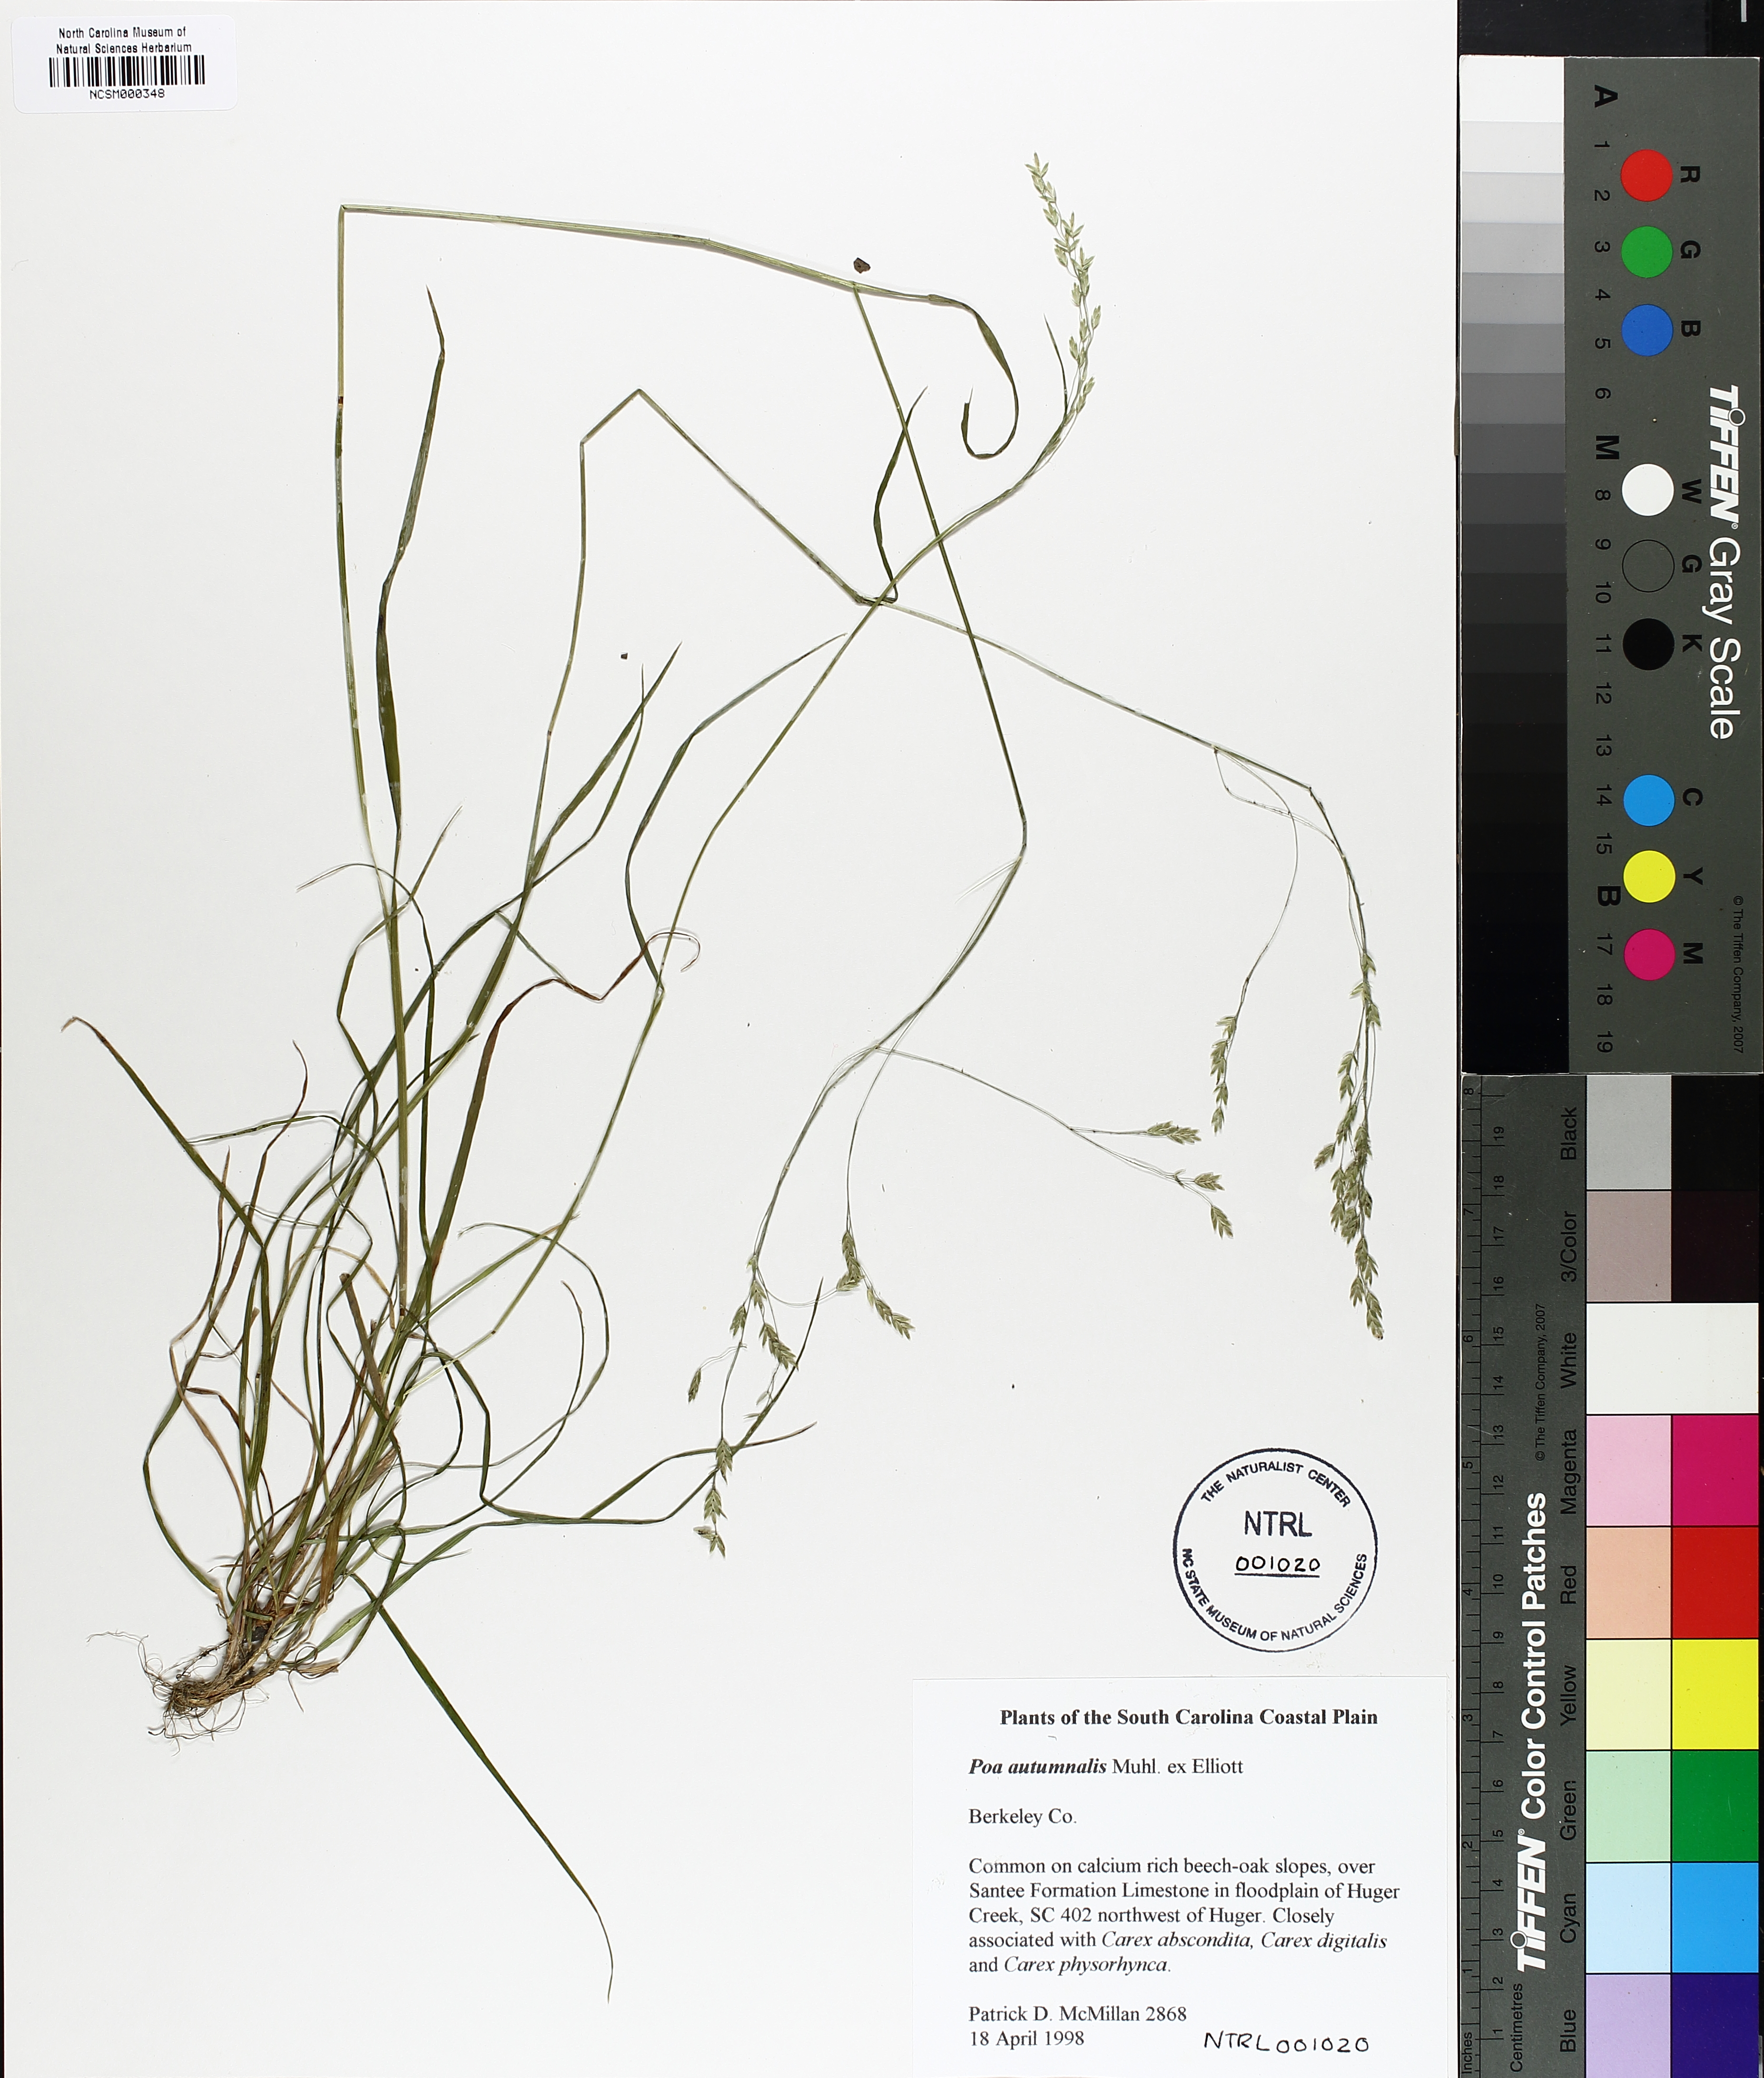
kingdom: Plantae
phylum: Tracheophyta
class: Liliopsida
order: Poales
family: Poaceae
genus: Poa
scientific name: Poa autumnalis
